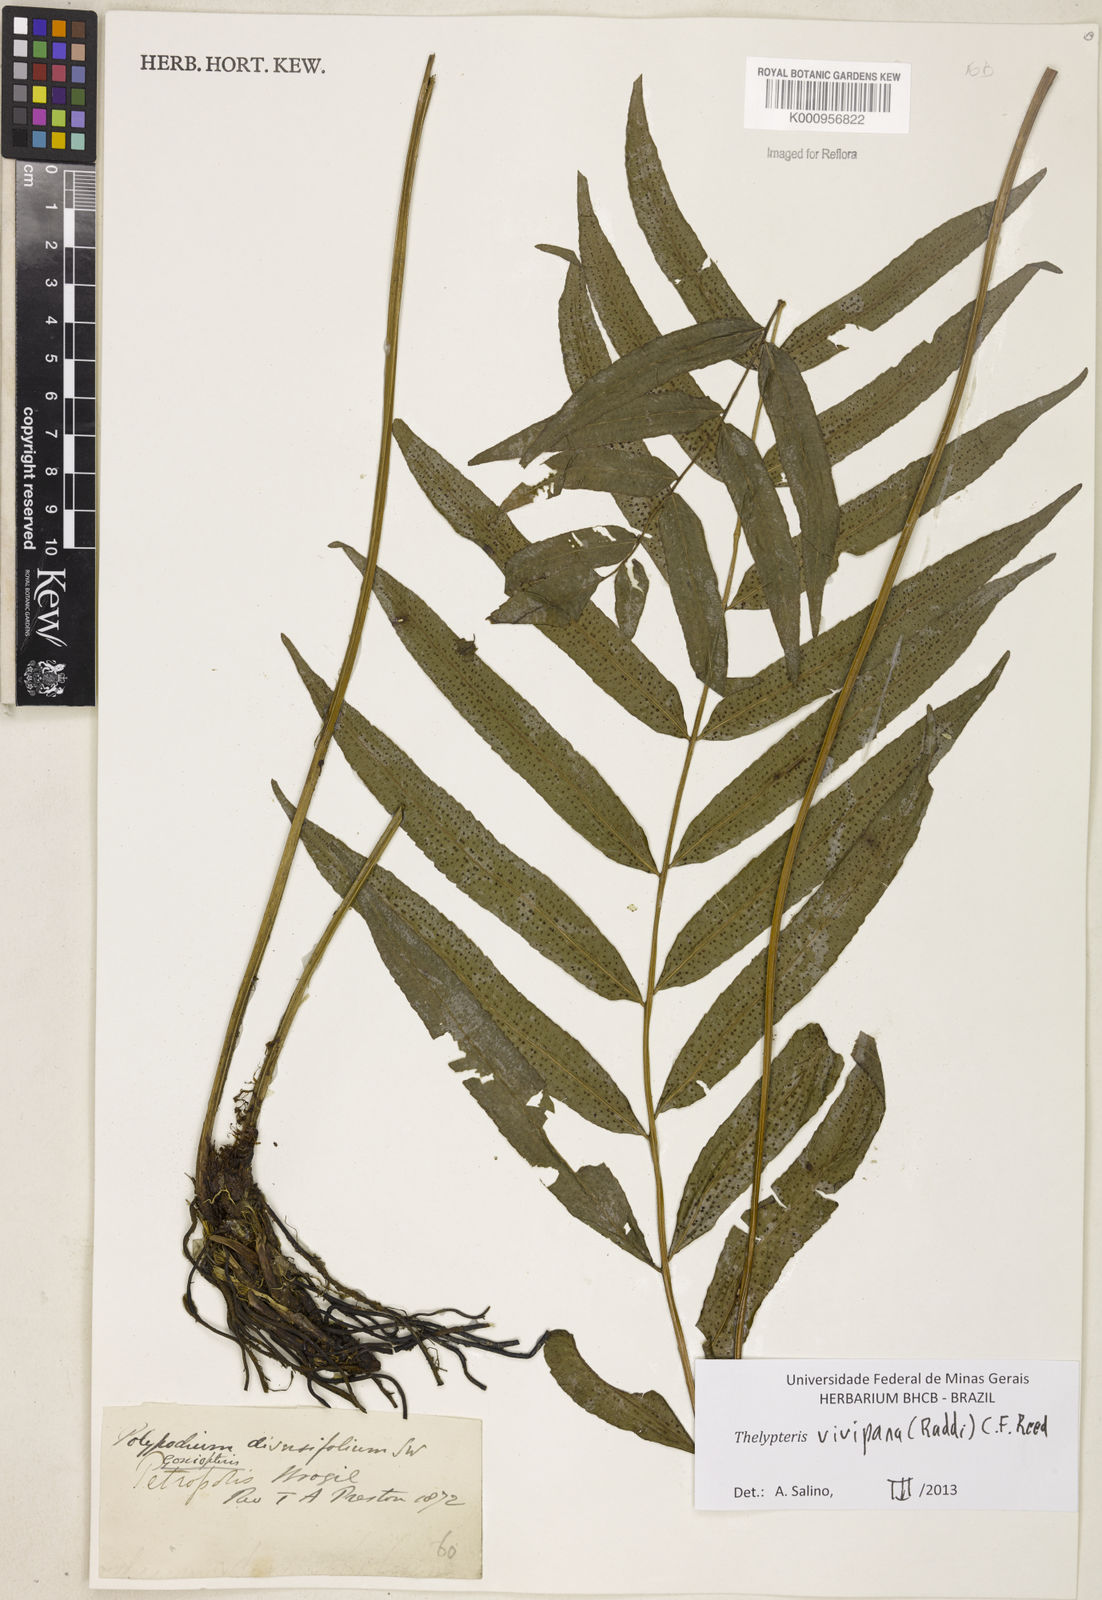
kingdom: Plantae
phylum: Tracheophyta
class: Polypodiopsida
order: Polypodiales
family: Thelypteridaceae
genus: Goniopteris
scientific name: Goniopteris vivipara
